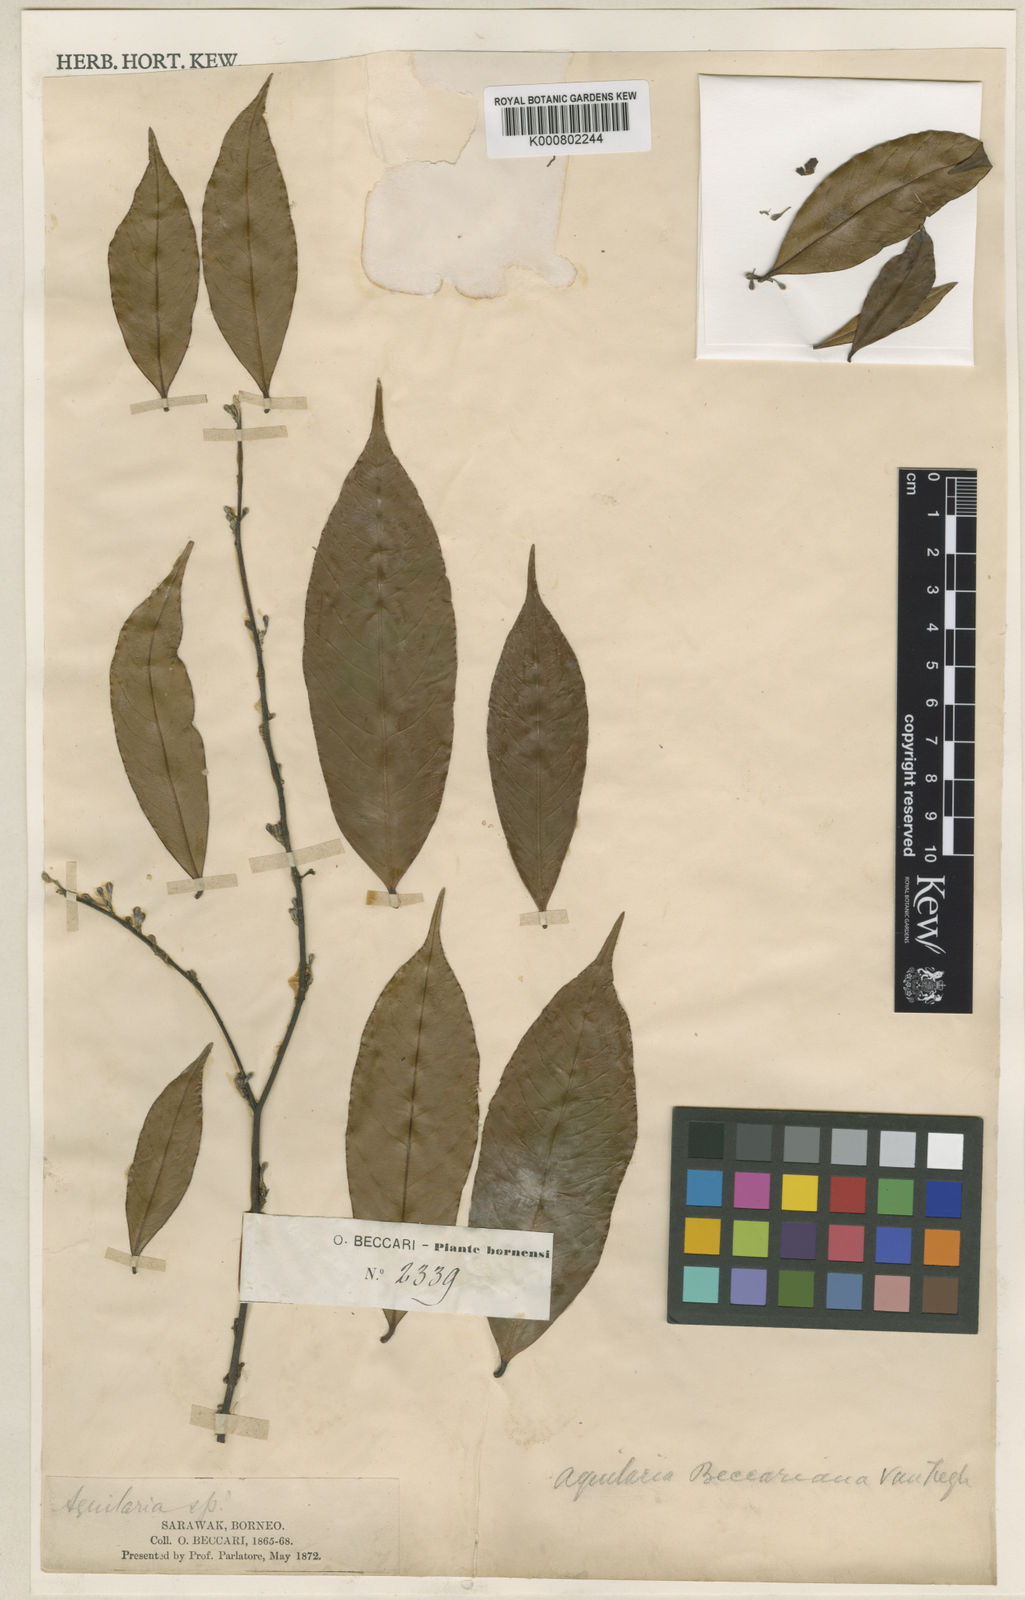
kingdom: Plantae
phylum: Tracheophyta
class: Magnoliopsida
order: Malvales
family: Thymelaeaceae
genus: Aquilaria
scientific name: Aquilaria beccariana
